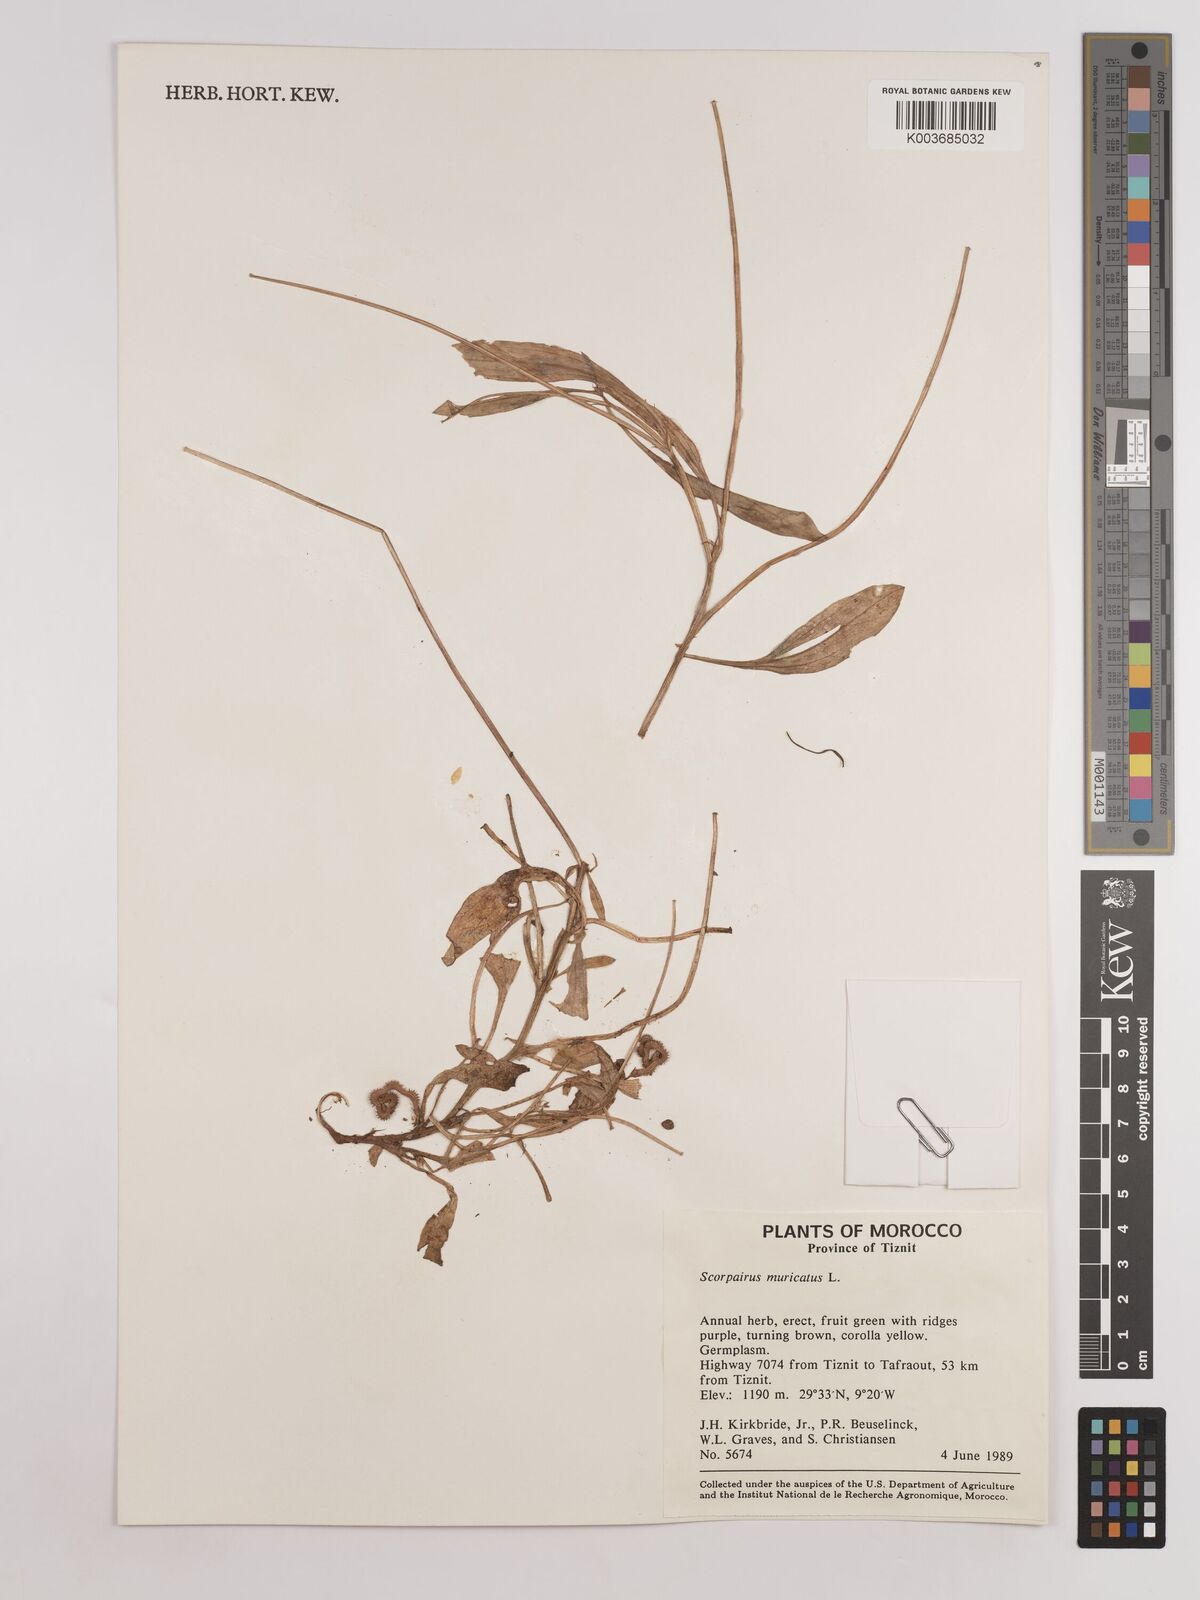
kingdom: Plantae
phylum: Tracheophyta
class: Magnoliopsida
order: Fabales
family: Fabaceae
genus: Scorpiurus
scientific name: Scorpiurus muricatus
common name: Caterpillar-plant
